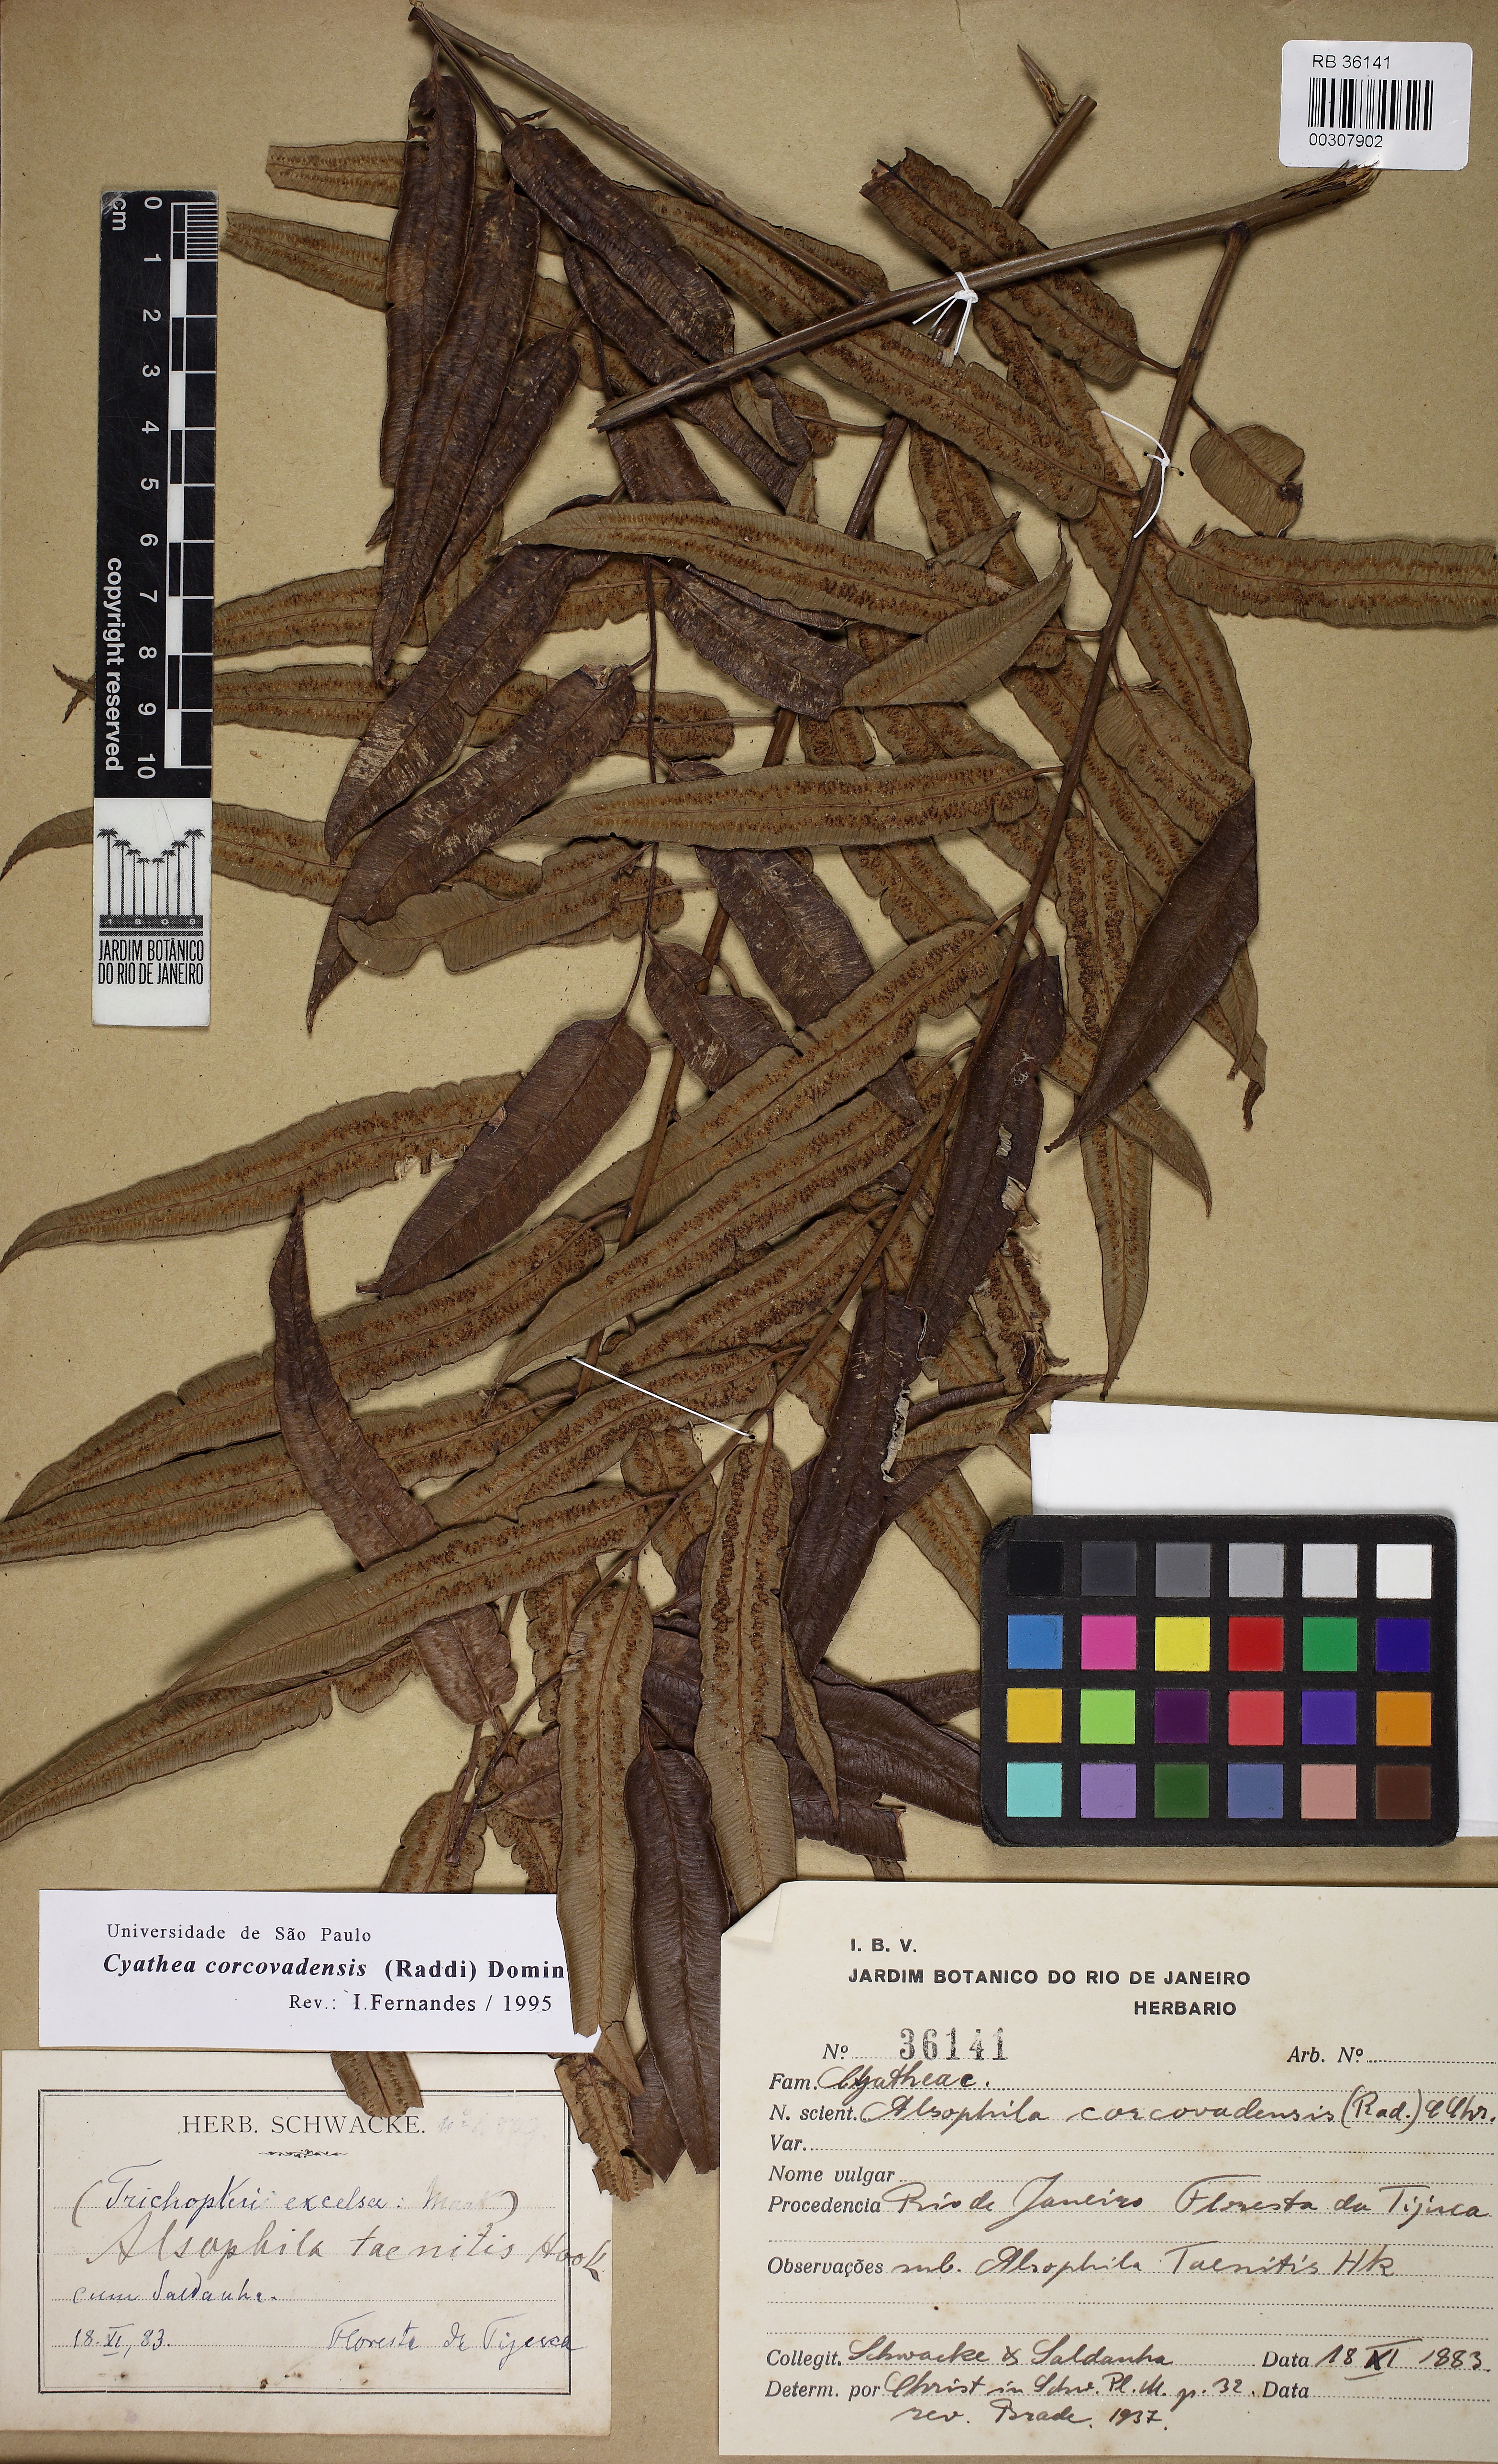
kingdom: Plantae
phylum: Tracheophyta
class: Polypodiopsida
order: Cyatheales
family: Cyatheaceae
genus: Cyathea
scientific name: Cyathea corcovadensis
